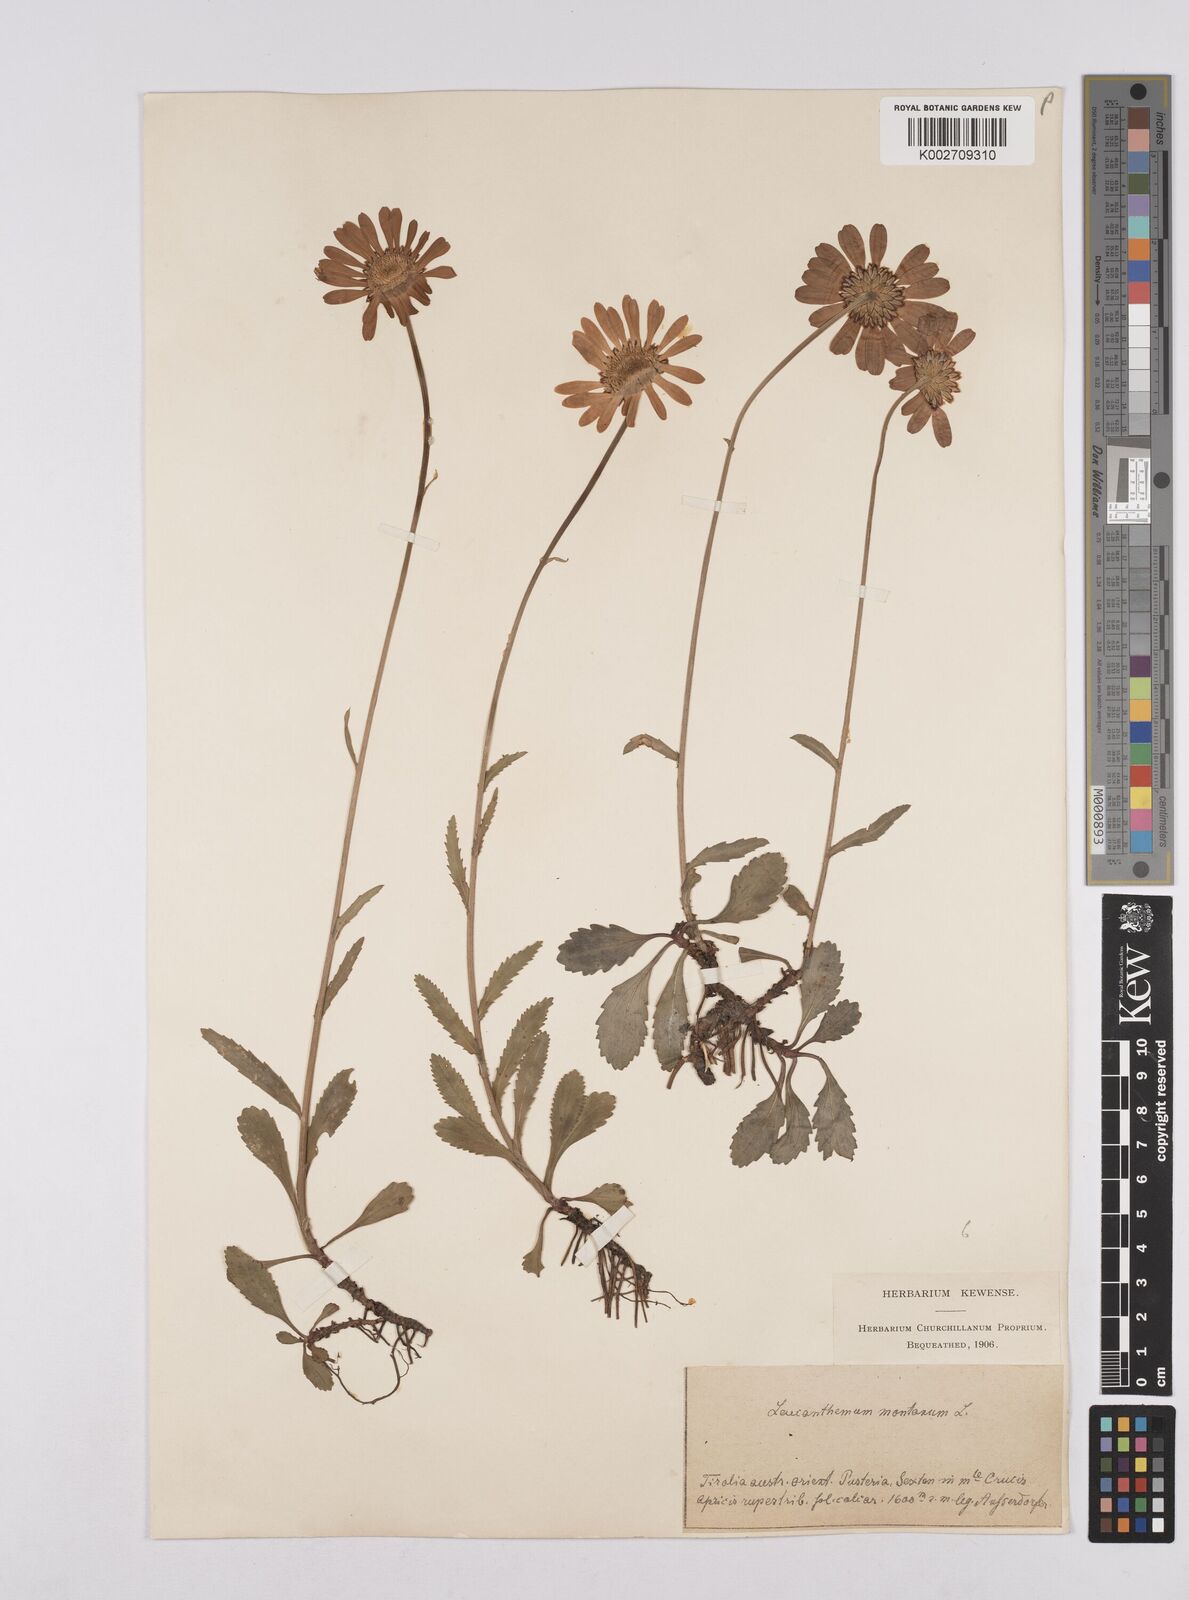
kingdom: Plantae
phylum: Tracheophyta
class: Magnoliopsida
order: Asterales
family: Asteraceae
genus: Leucanthemum
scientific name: Leucanthemum chloroticum
